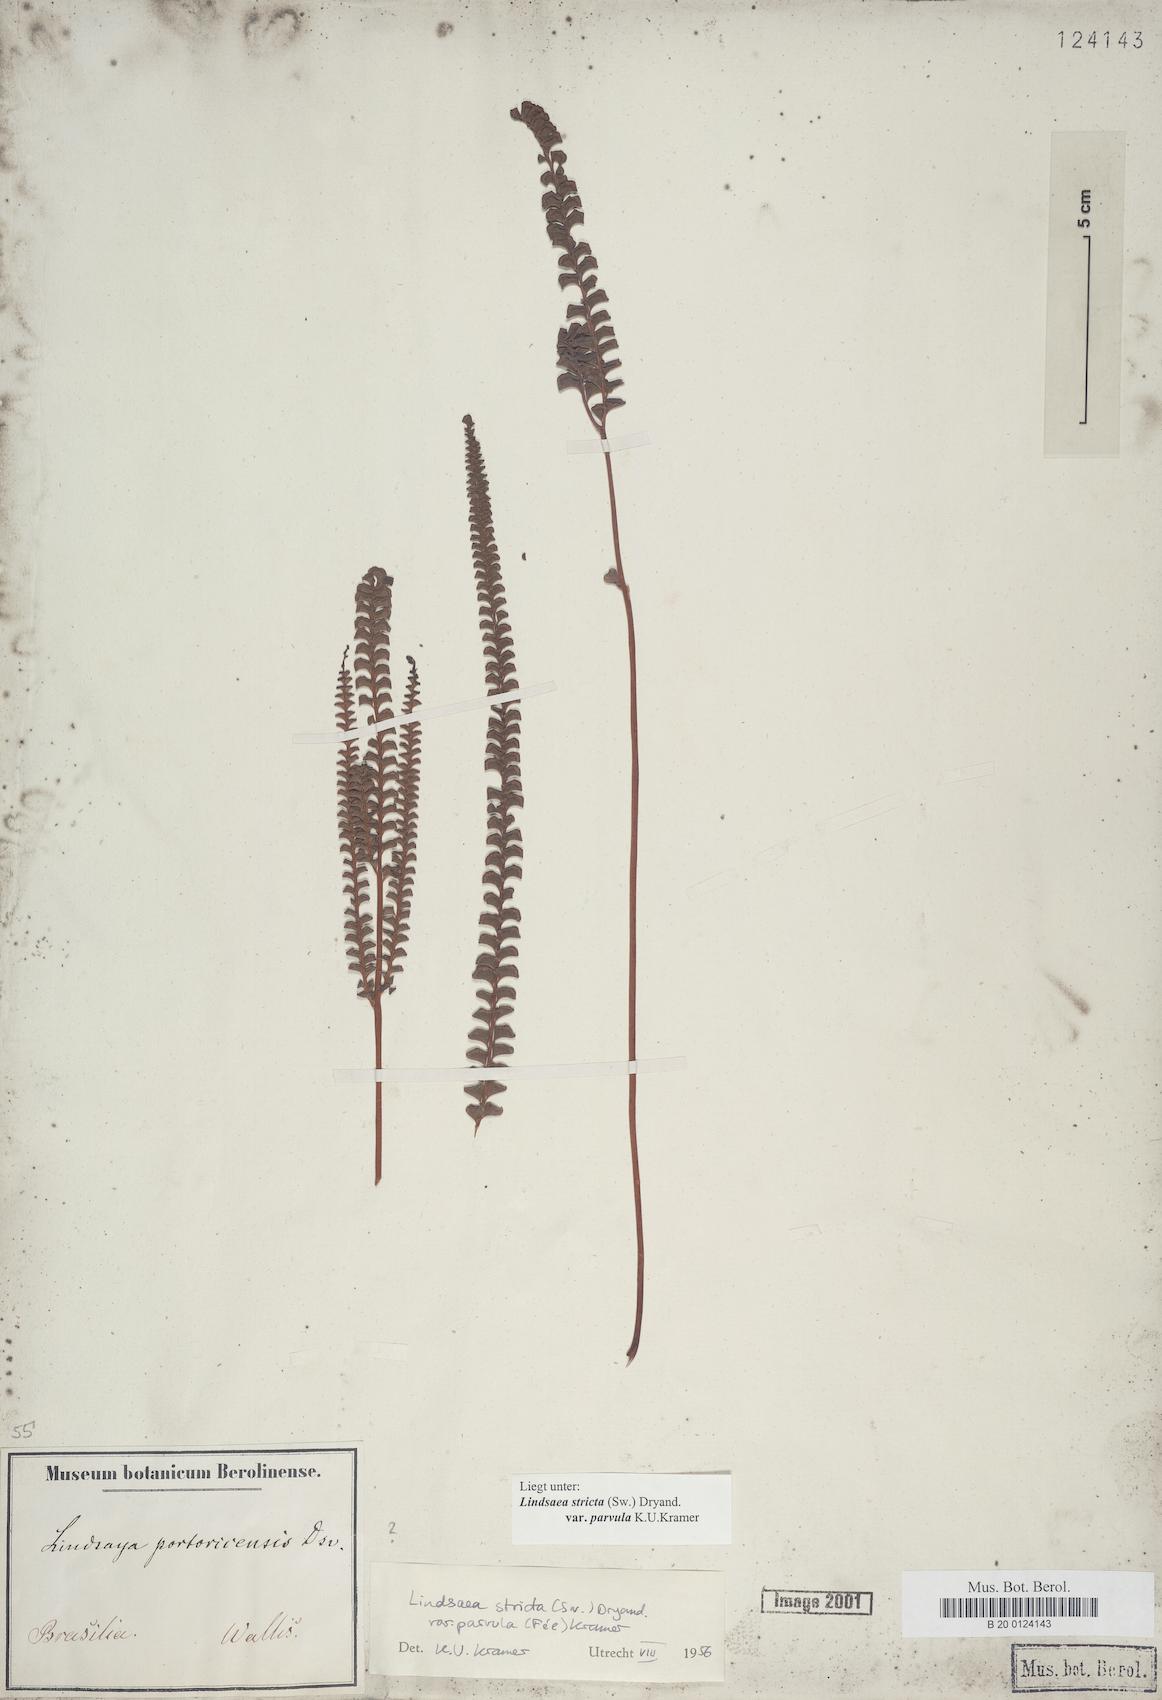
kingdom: Plantae
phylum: Tracheophyta
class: Polypodiopsida
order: Polypodiales
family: Lindsaeaceae
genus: Lindsaea
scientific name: Lindsaea stricta
